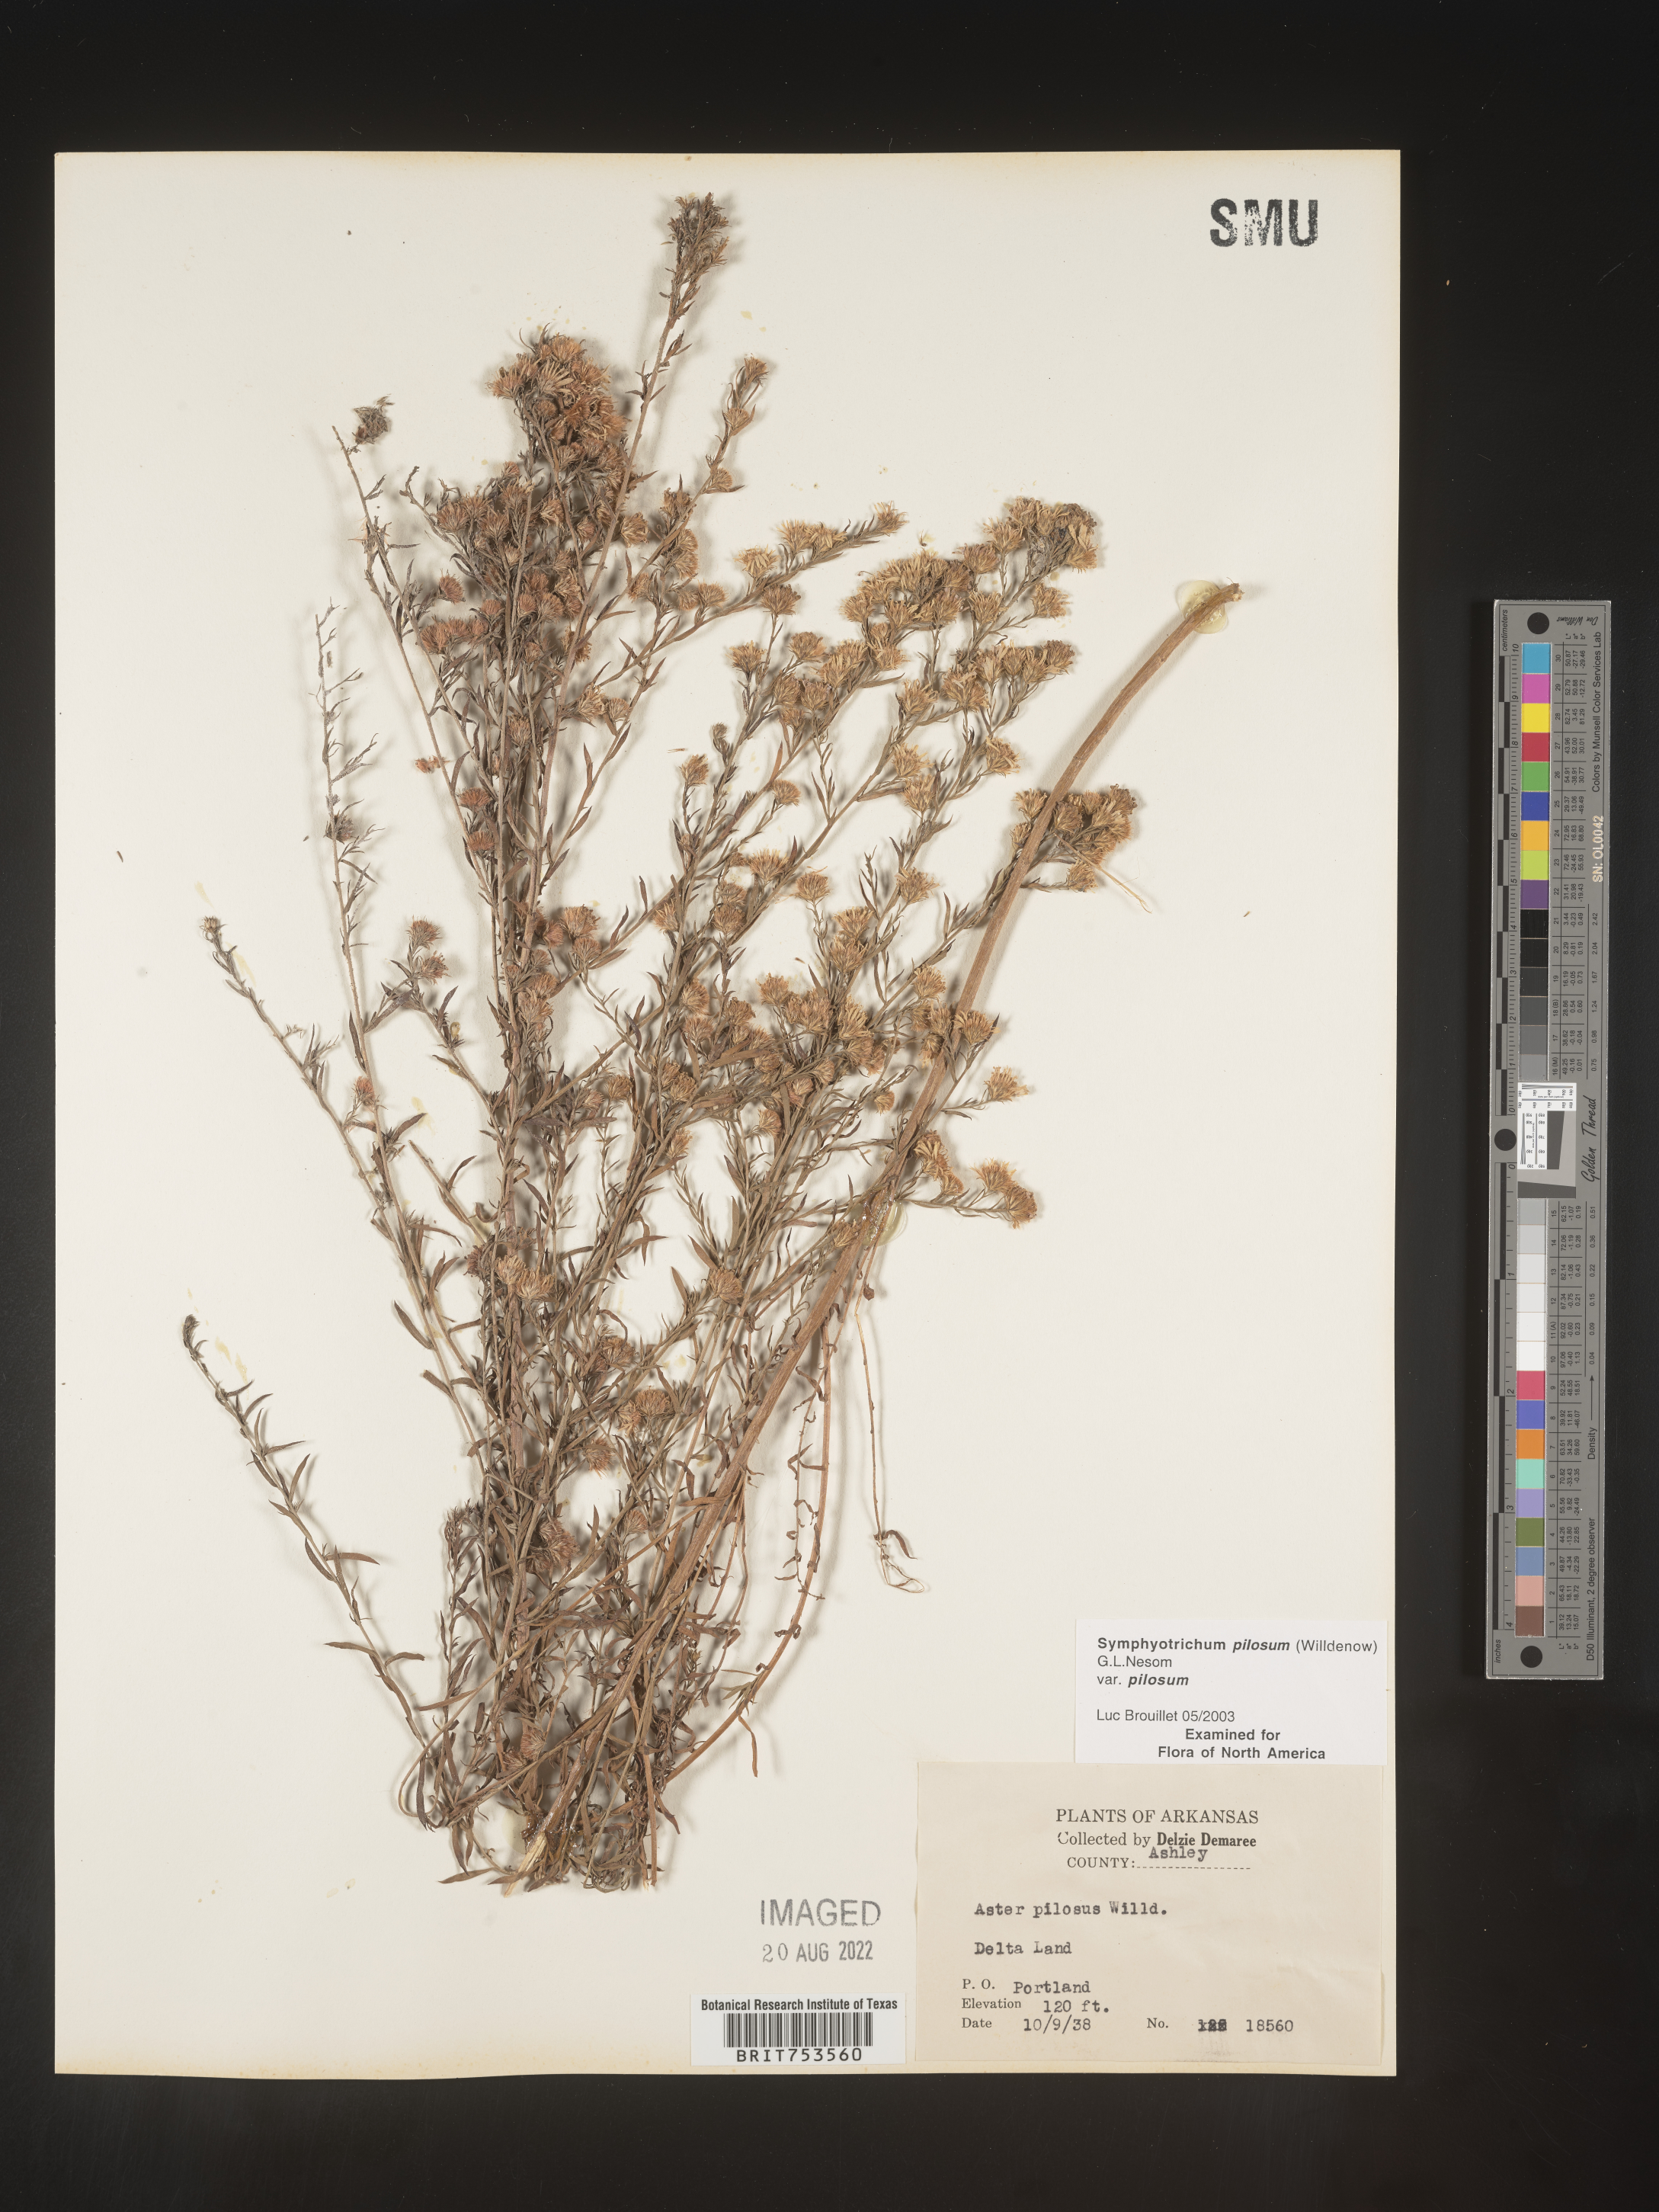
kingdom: Plantae
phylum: Tracheophyta
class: Magnoliopsida
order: Asterales
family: Asteraceae
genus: Symphyotrichum
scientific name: Symphyotrichum pilosum
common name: Awl aster
